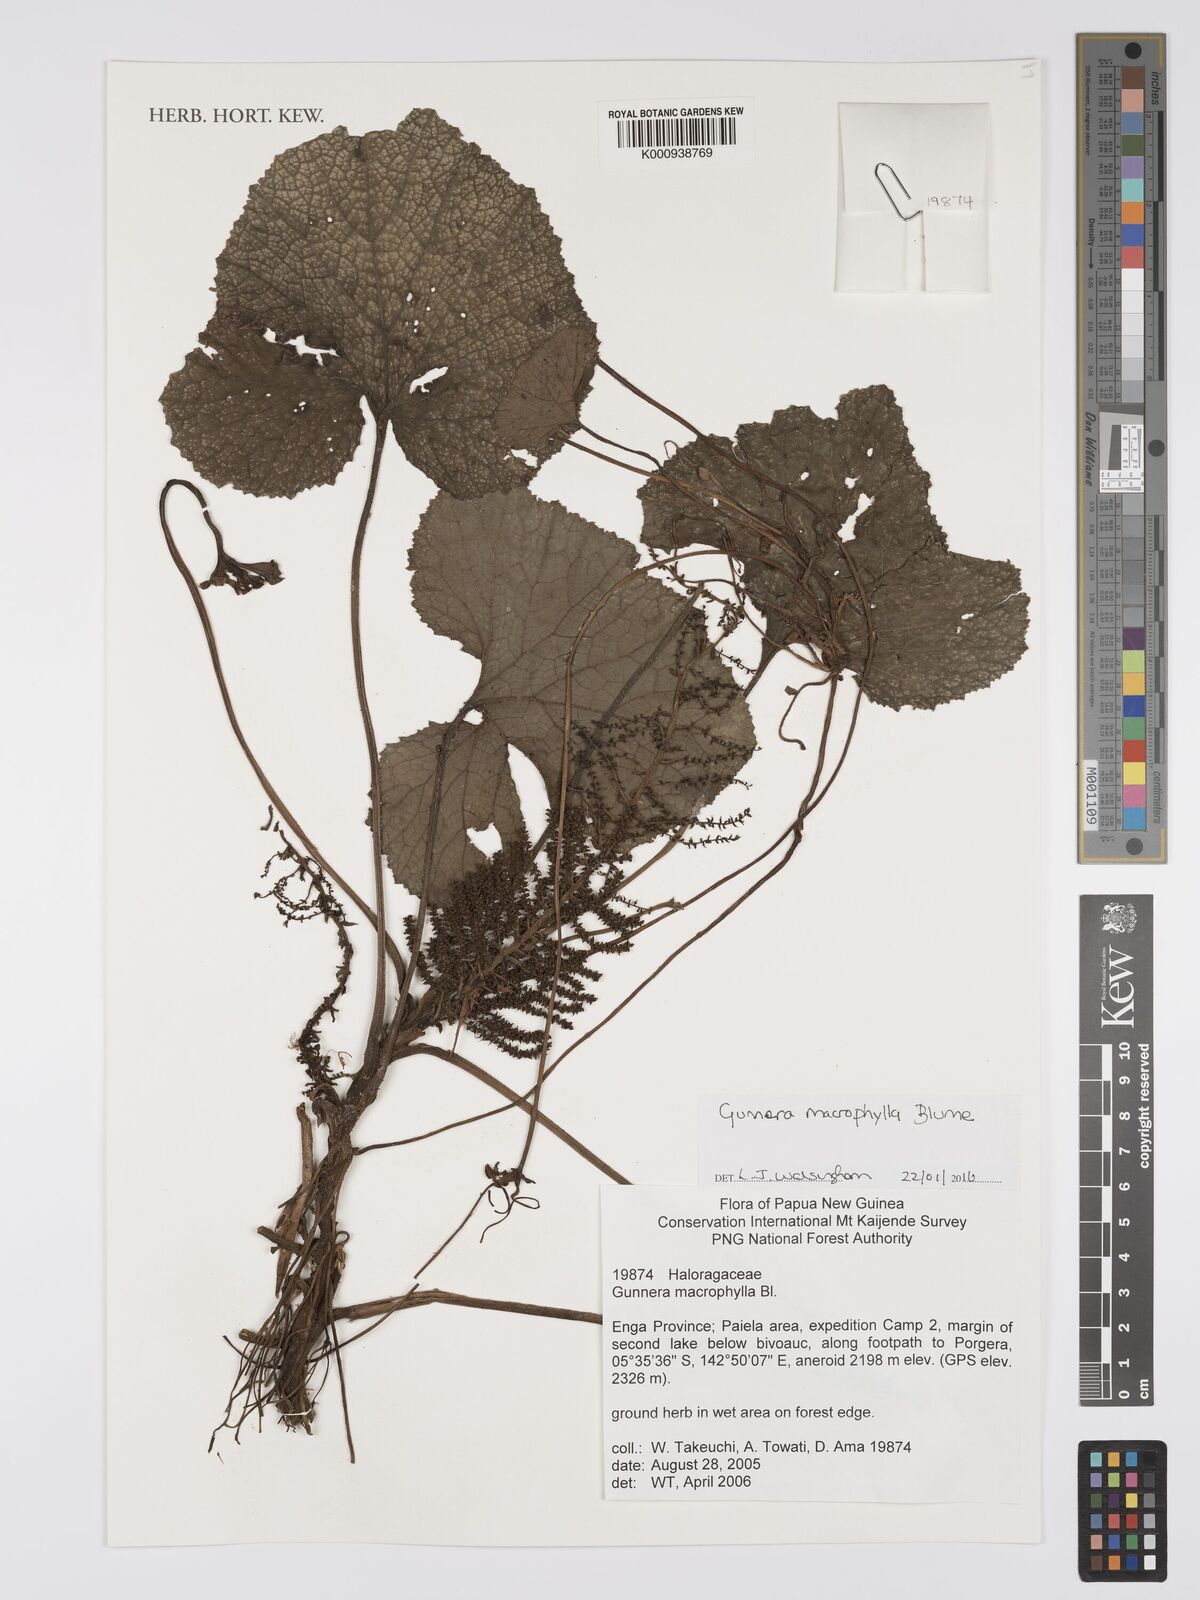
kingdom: Plantae
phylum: Tracheophyta
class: Magnoliopsida
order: Gunnerales
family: Gunneraceae
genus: Gunnera
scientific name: Gunnera macrophylla
